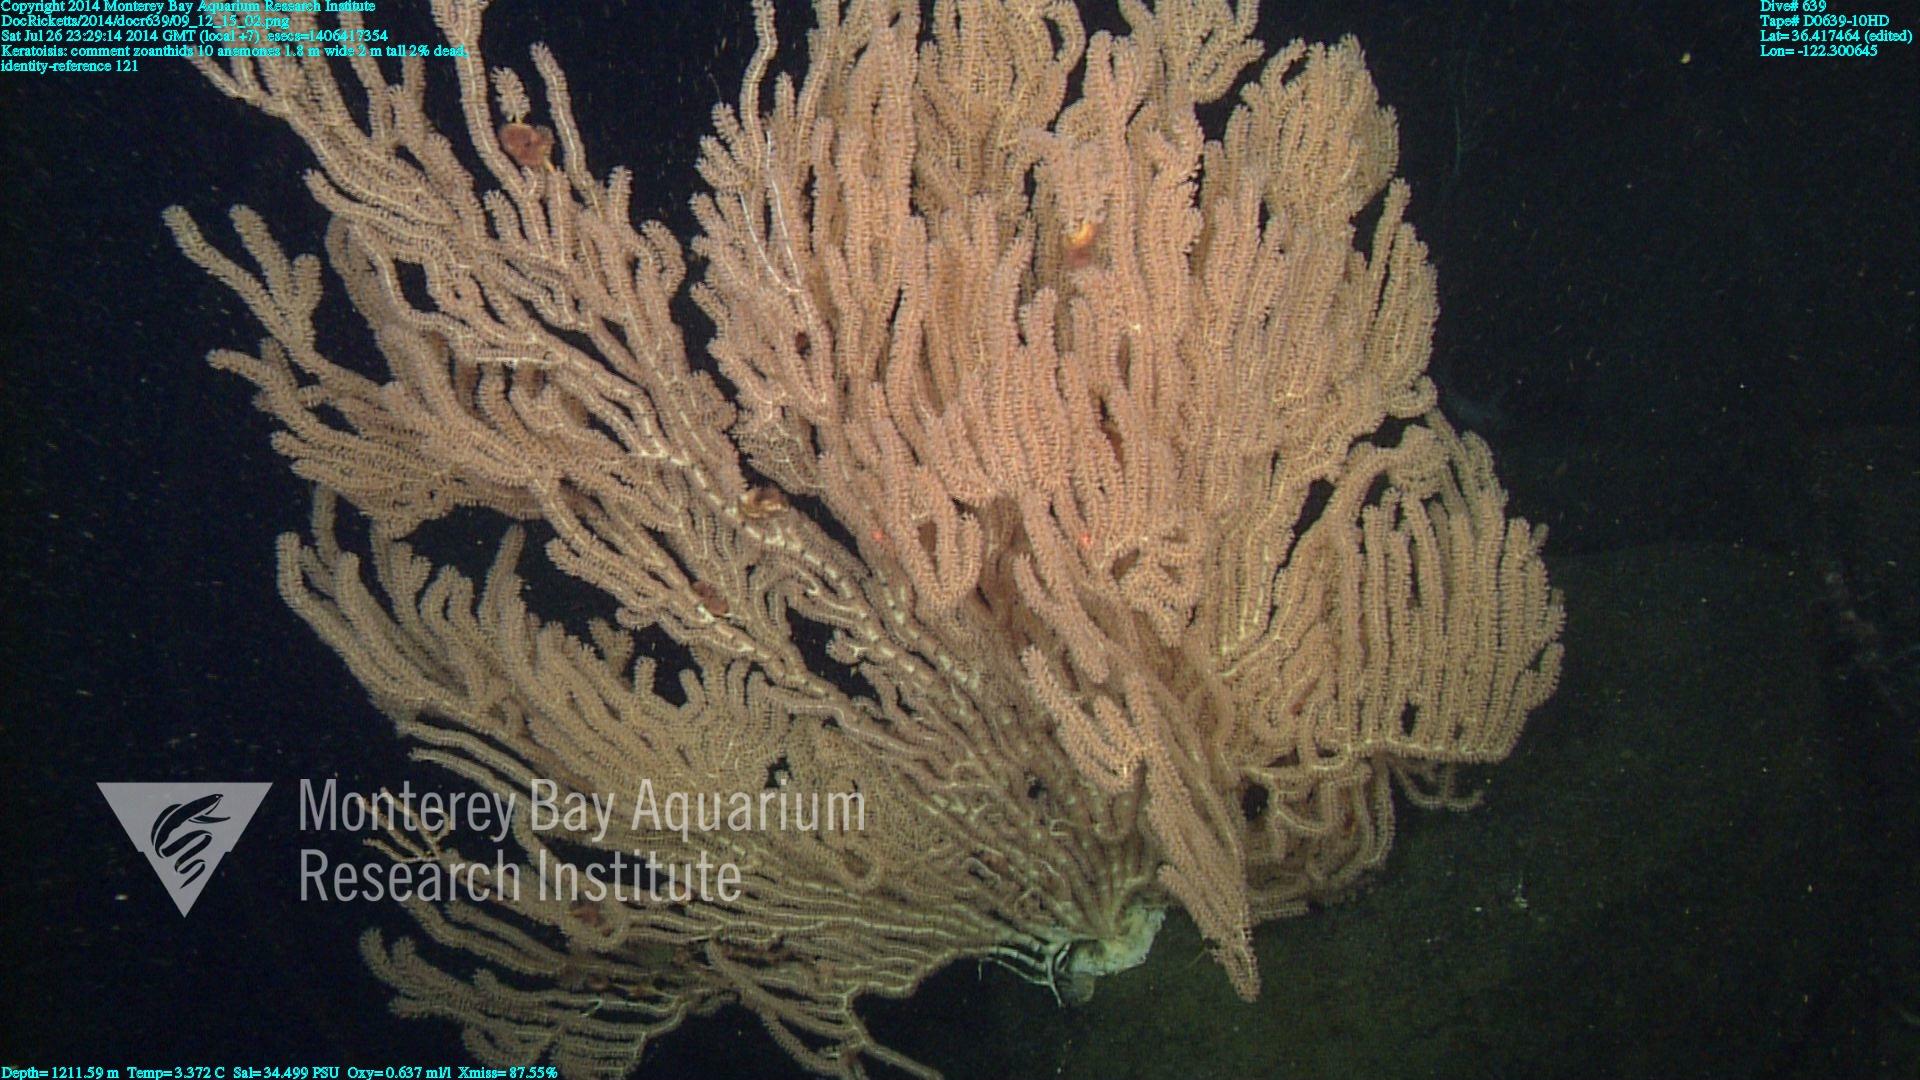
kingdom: Animalia
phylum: Cnidaria
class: Anthozoa
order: Scleralcyonacea
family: Keratoisididae
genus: Keratoisis
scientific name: Keratoisis
